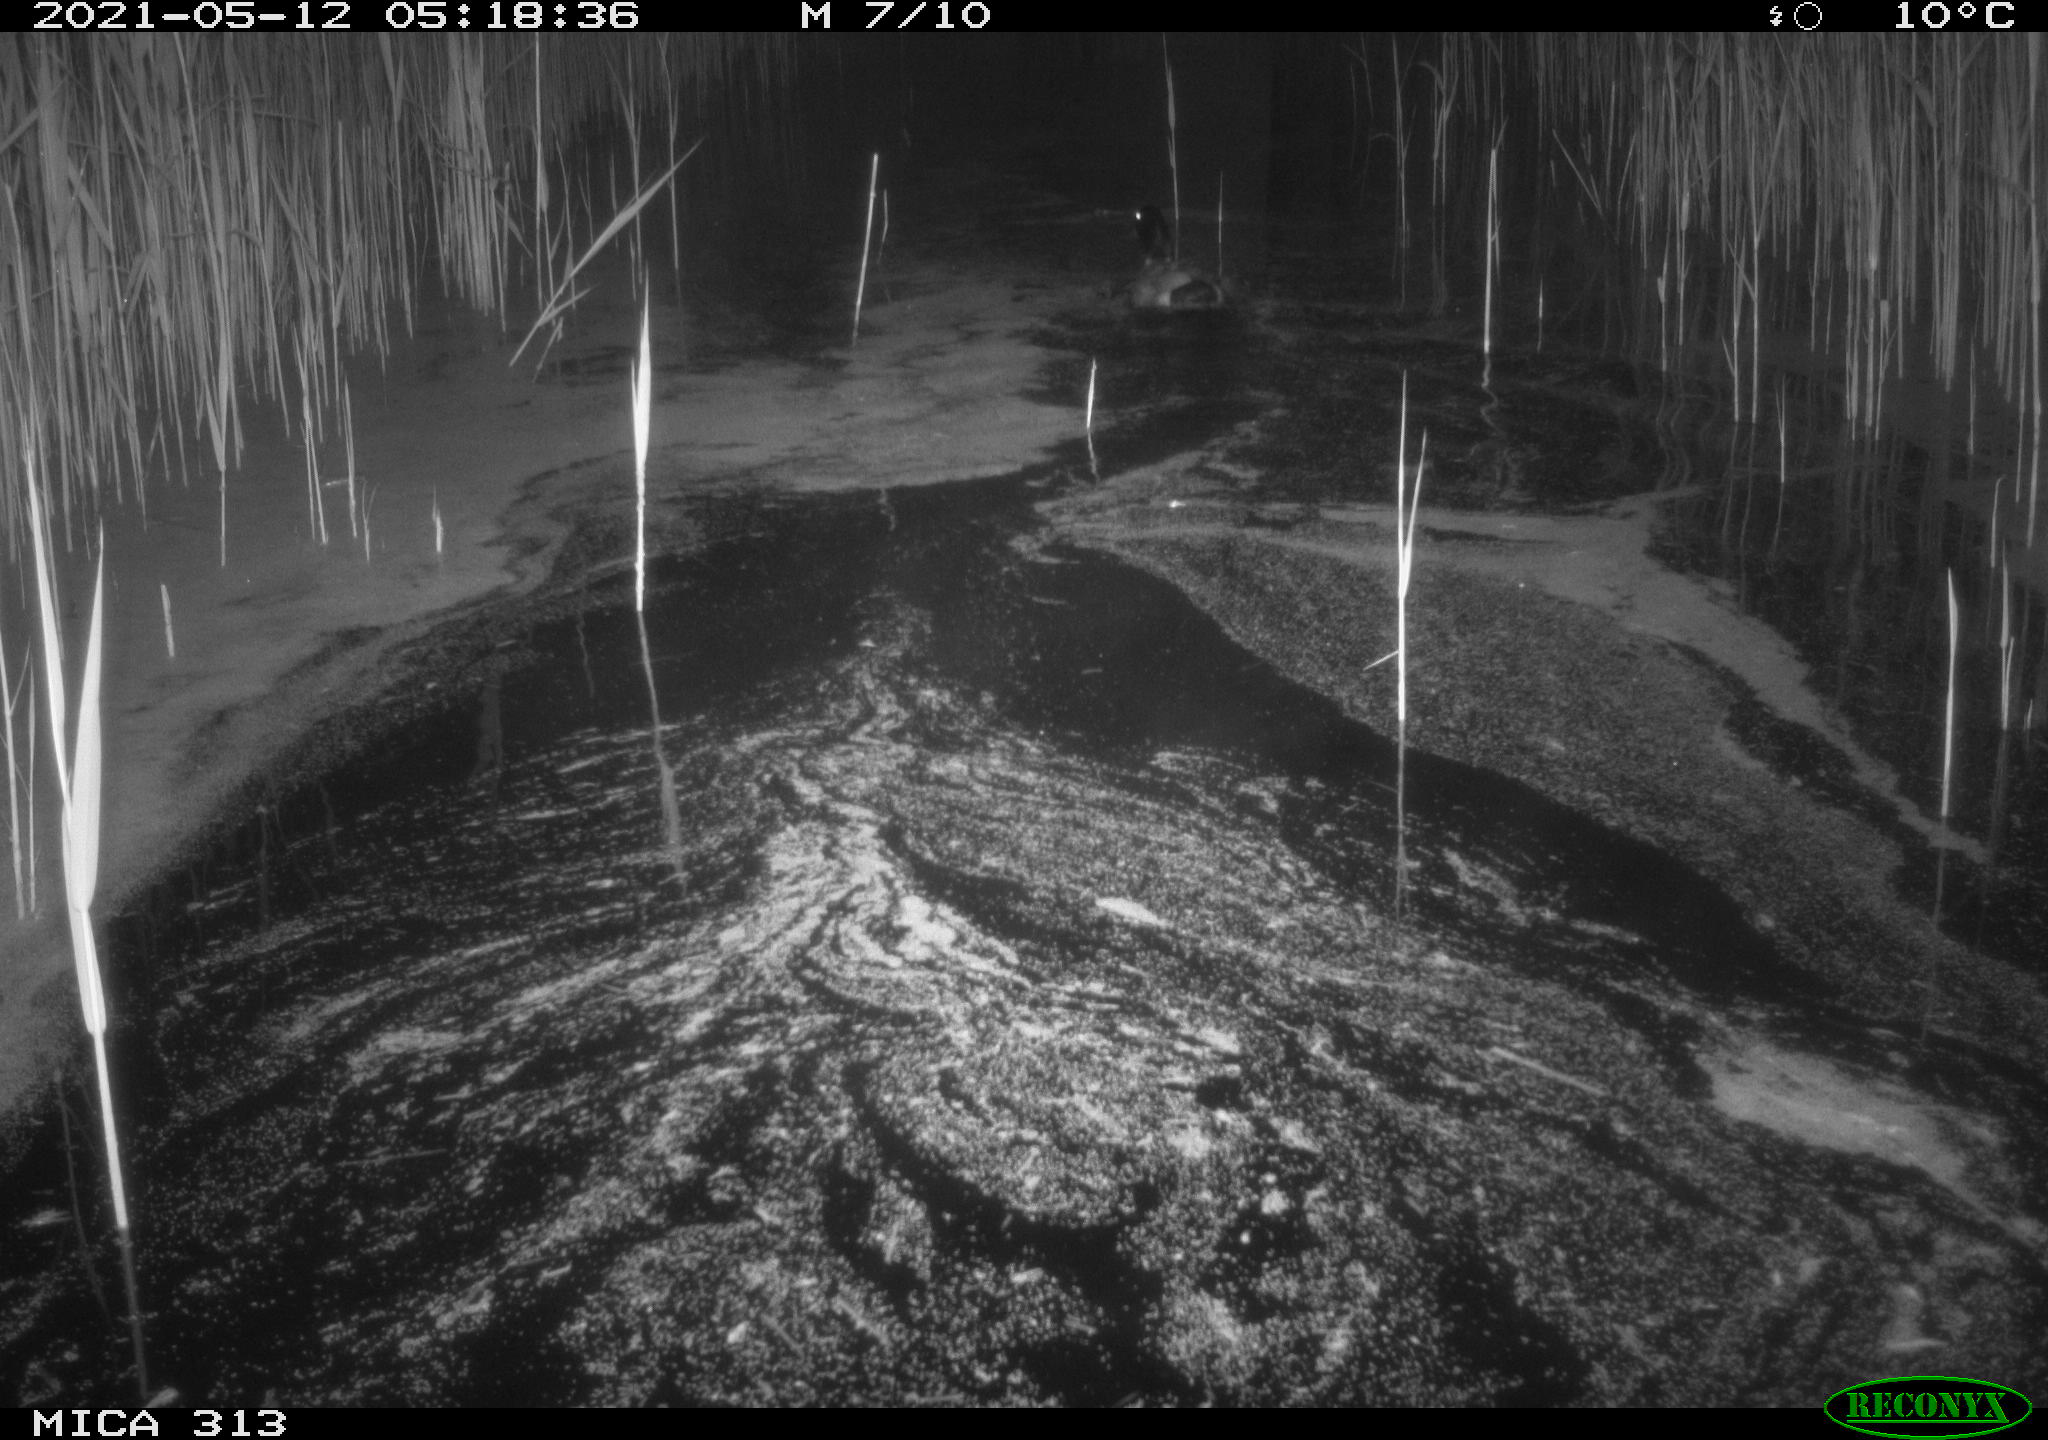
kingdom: Animalia
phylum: Chordata
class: Aves
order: Gruiformes
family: Rallidae
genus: Gallinula
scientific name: Gallinula chloropus
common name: Common moorhen
